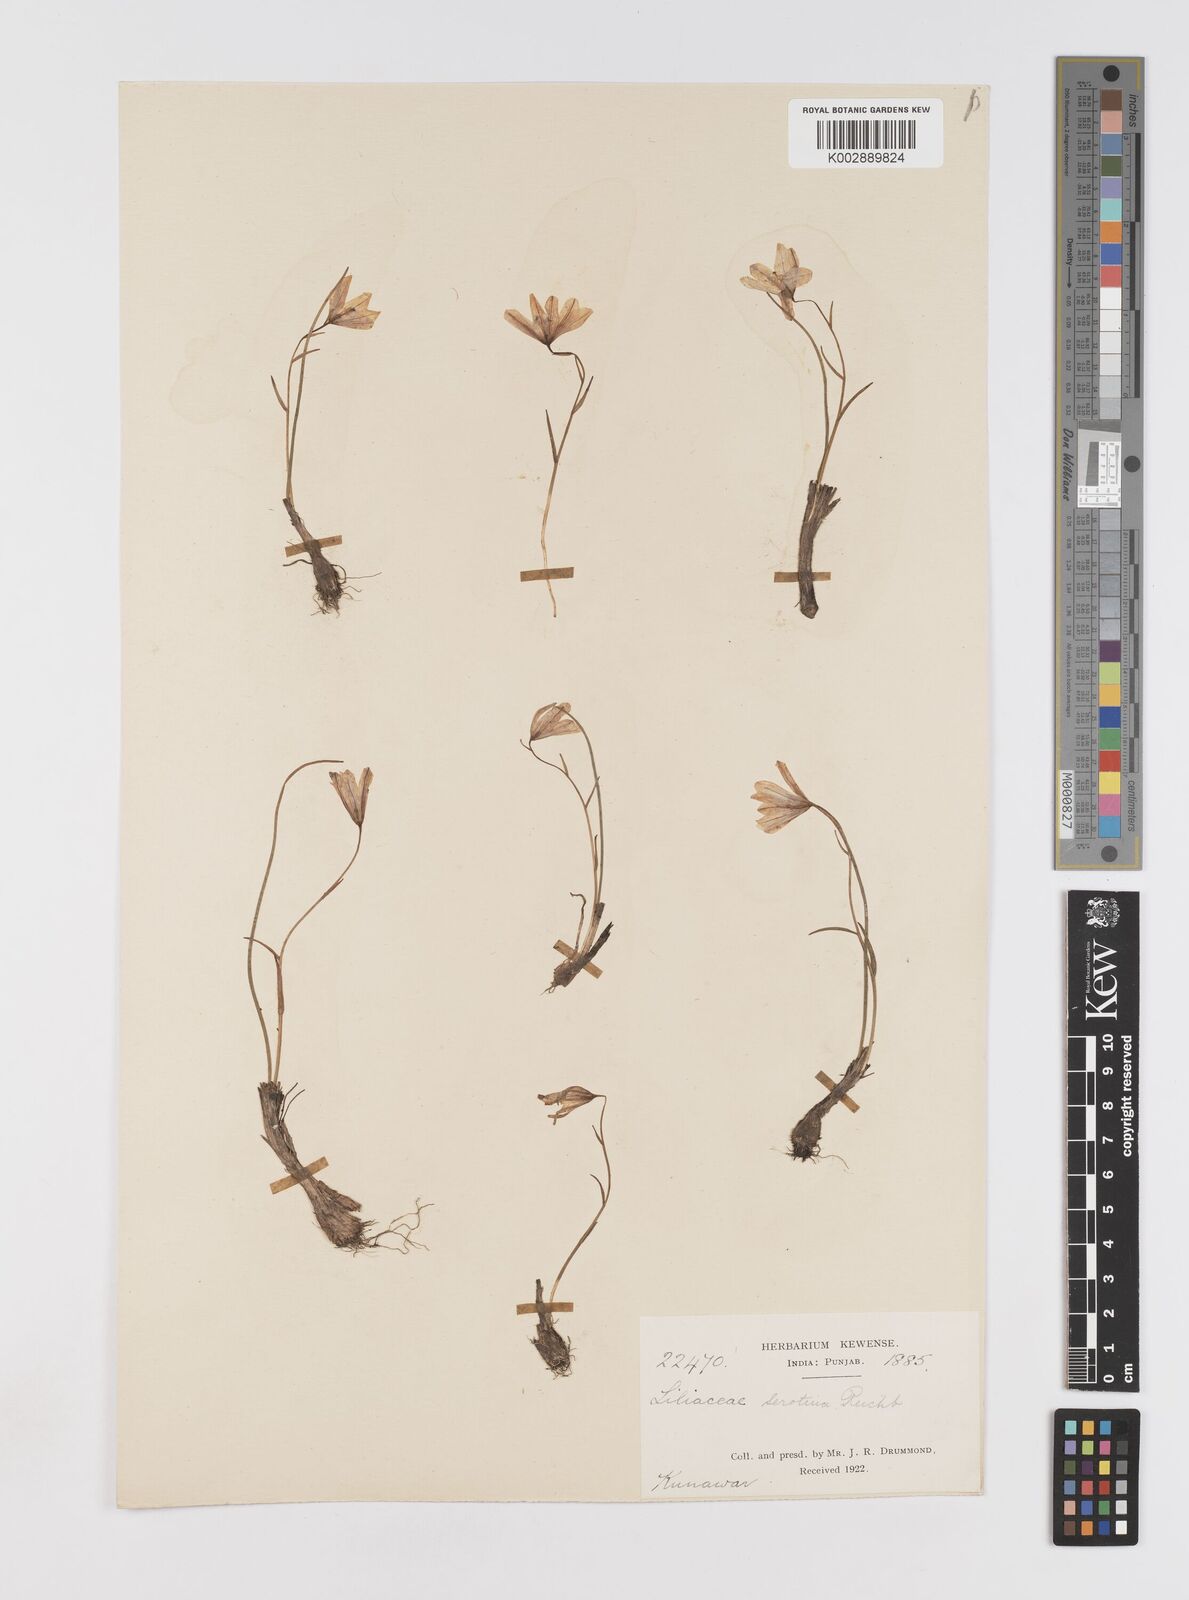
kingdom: Plantae
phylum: Tracheophyta
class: Liliopsida
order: Liliales
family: Liliaceae
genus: Gagea
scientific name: Gagea serotina
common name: Snowdon lily
